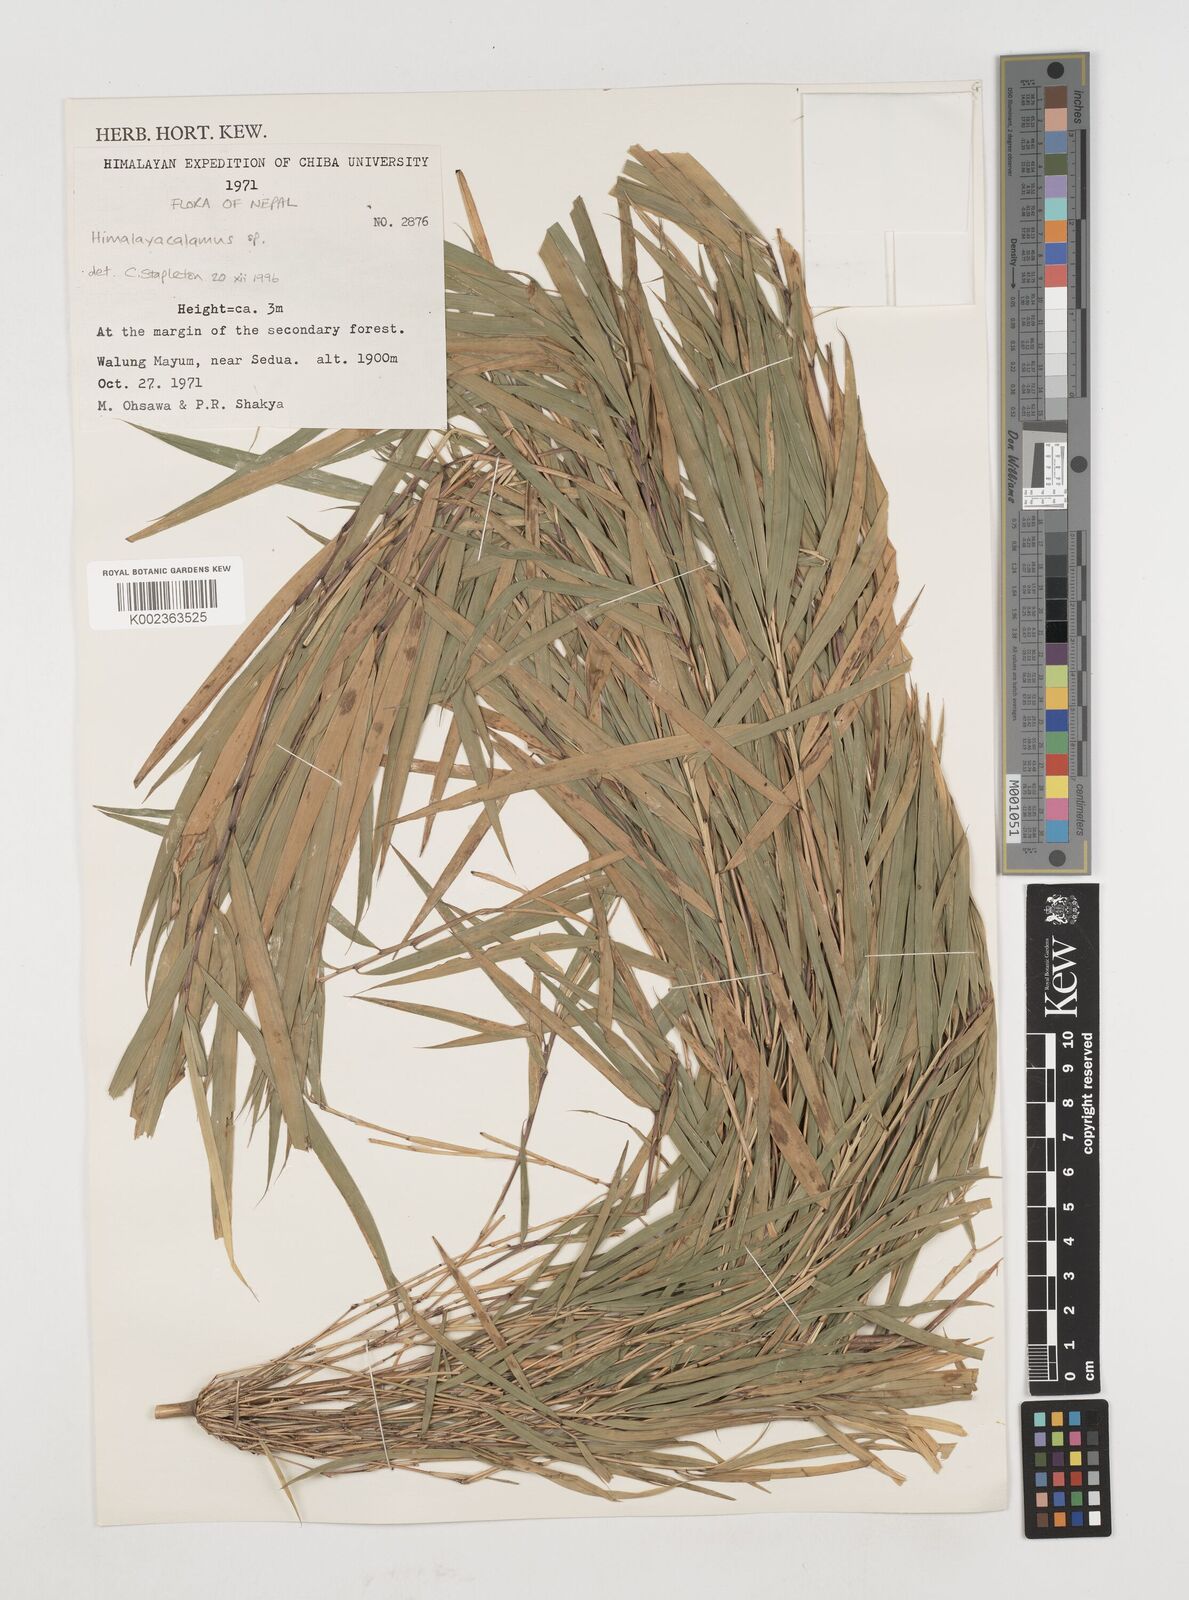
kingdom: Plantae
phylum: Tracheophyta
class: Liliopsida
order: Poales
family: Poaceae
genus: Himalayacalamus
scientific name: Himalayacalamus falconeri
